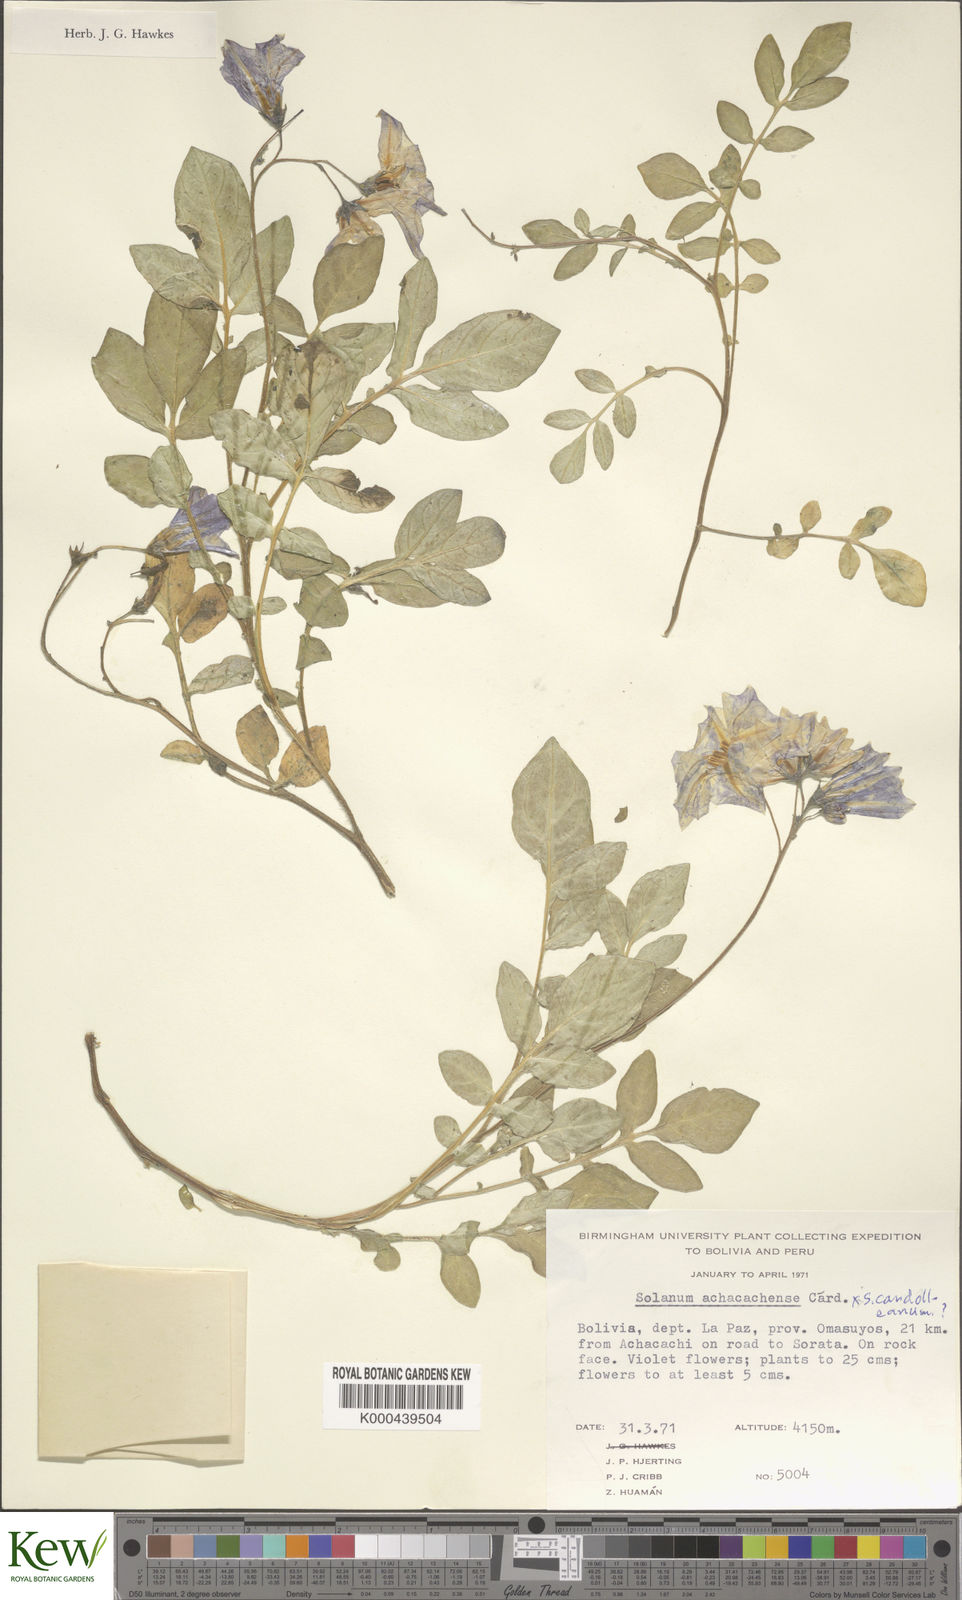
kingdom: Plantae
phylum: Tracheophyta
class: Magnoliopsida
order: Solanales
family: Solanaceae
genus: Solanum
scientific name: Solanum brevicaule
